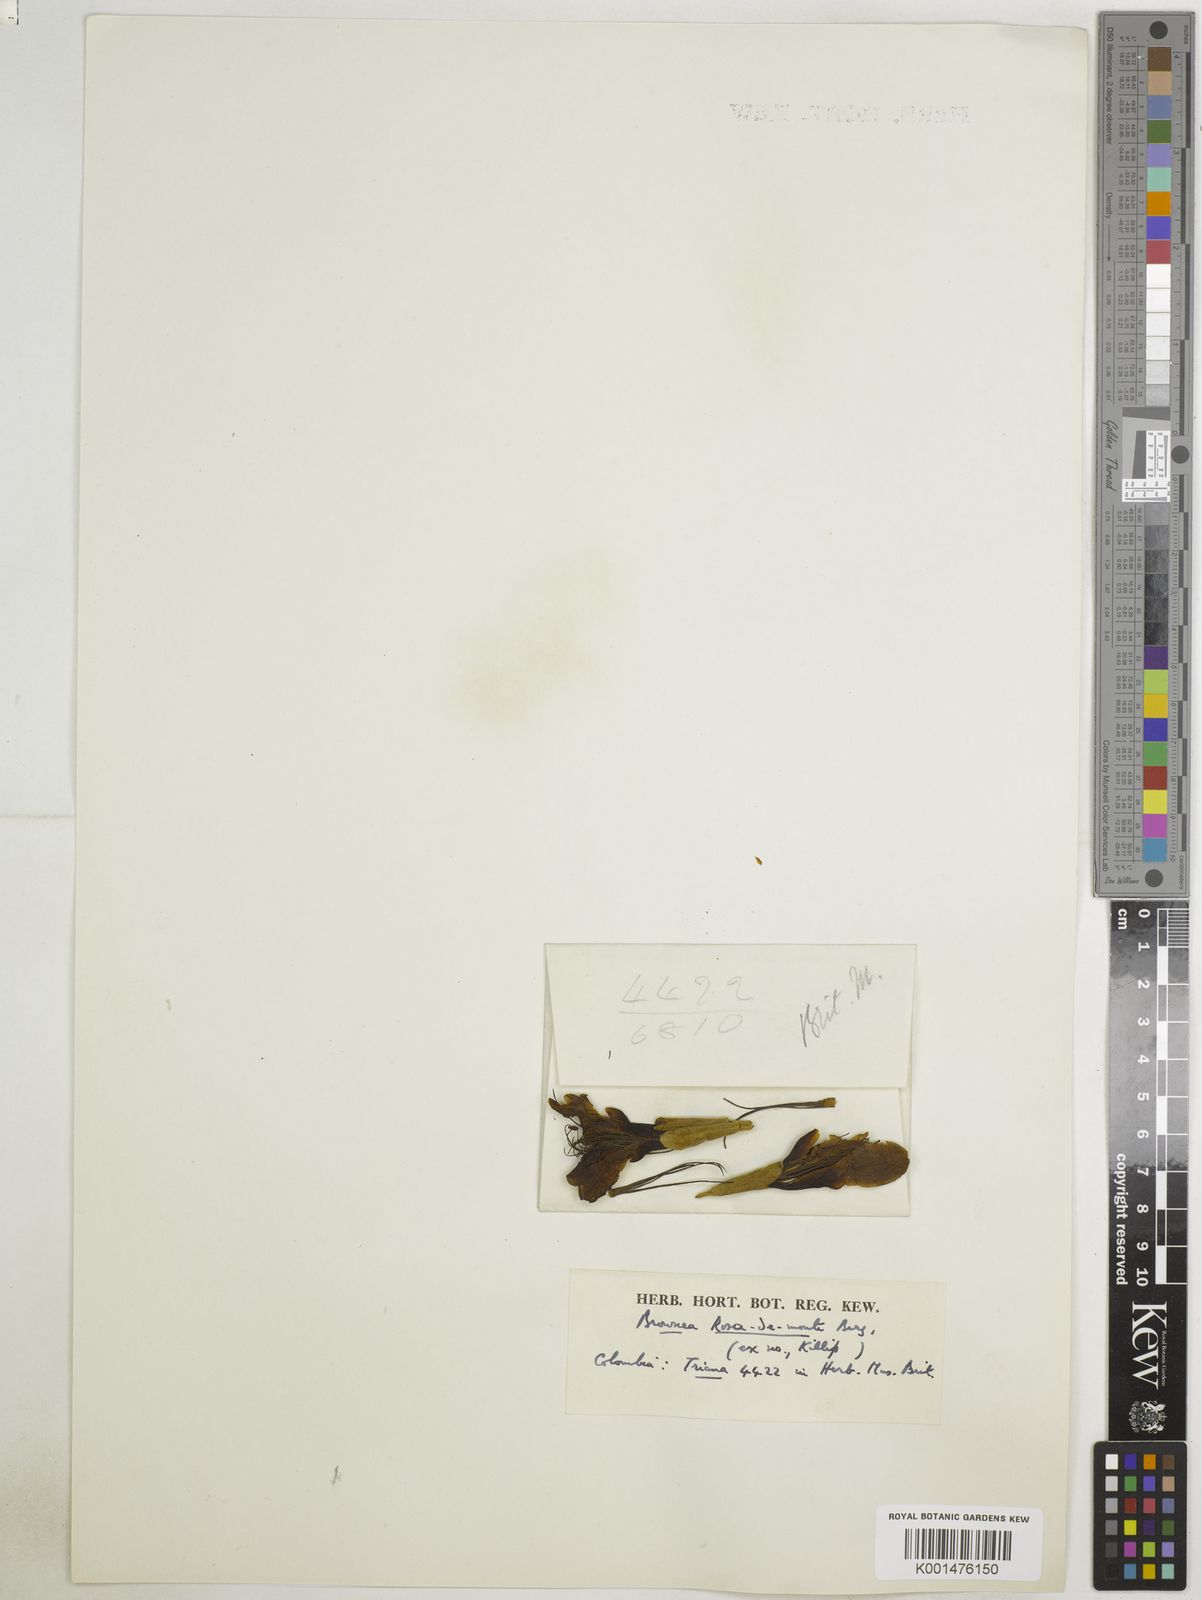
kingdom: Plantae
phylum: Tracheophyta
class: Magnoliopsida
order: Fabales
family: Fabaceae
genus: Brownea
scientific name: Brownea rosa-de-monte
